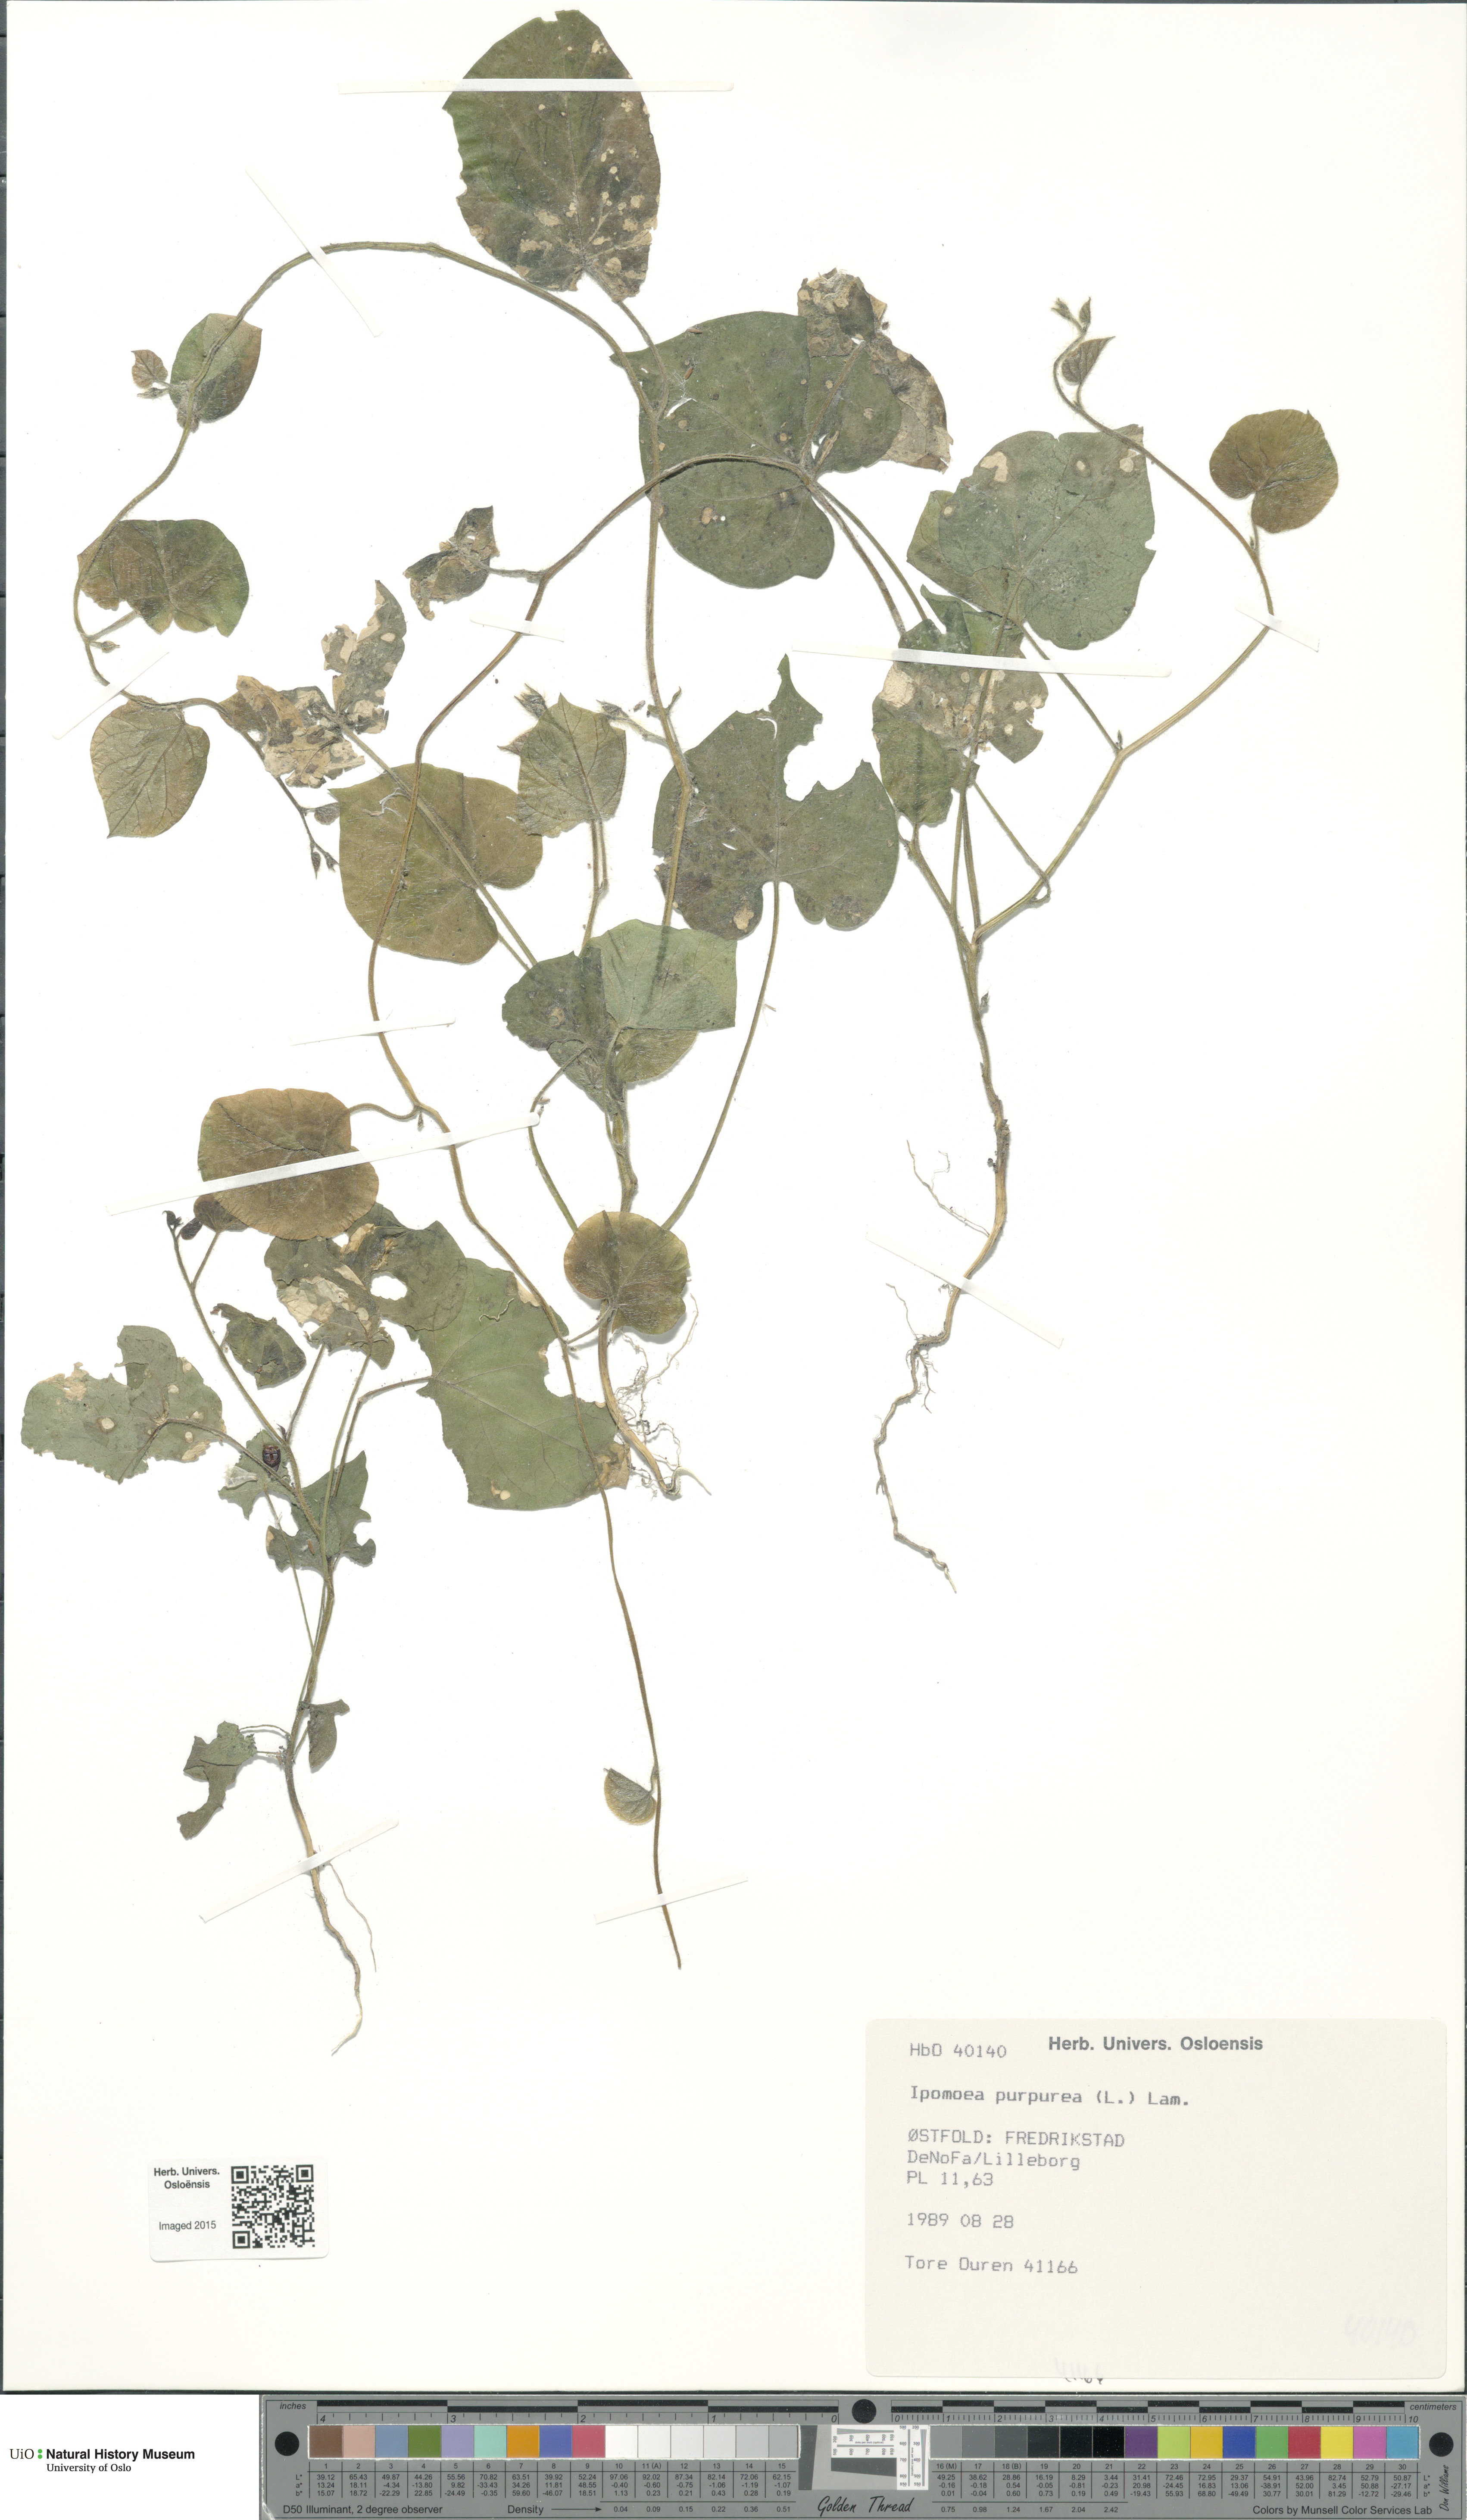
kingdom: Plantae
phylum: Tracheophyta
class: Magnoliopsida
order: Solanales
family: Convolvulaceae
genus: Ipomoea
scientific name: Ipomoea purpurea
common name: Common morning-glory
